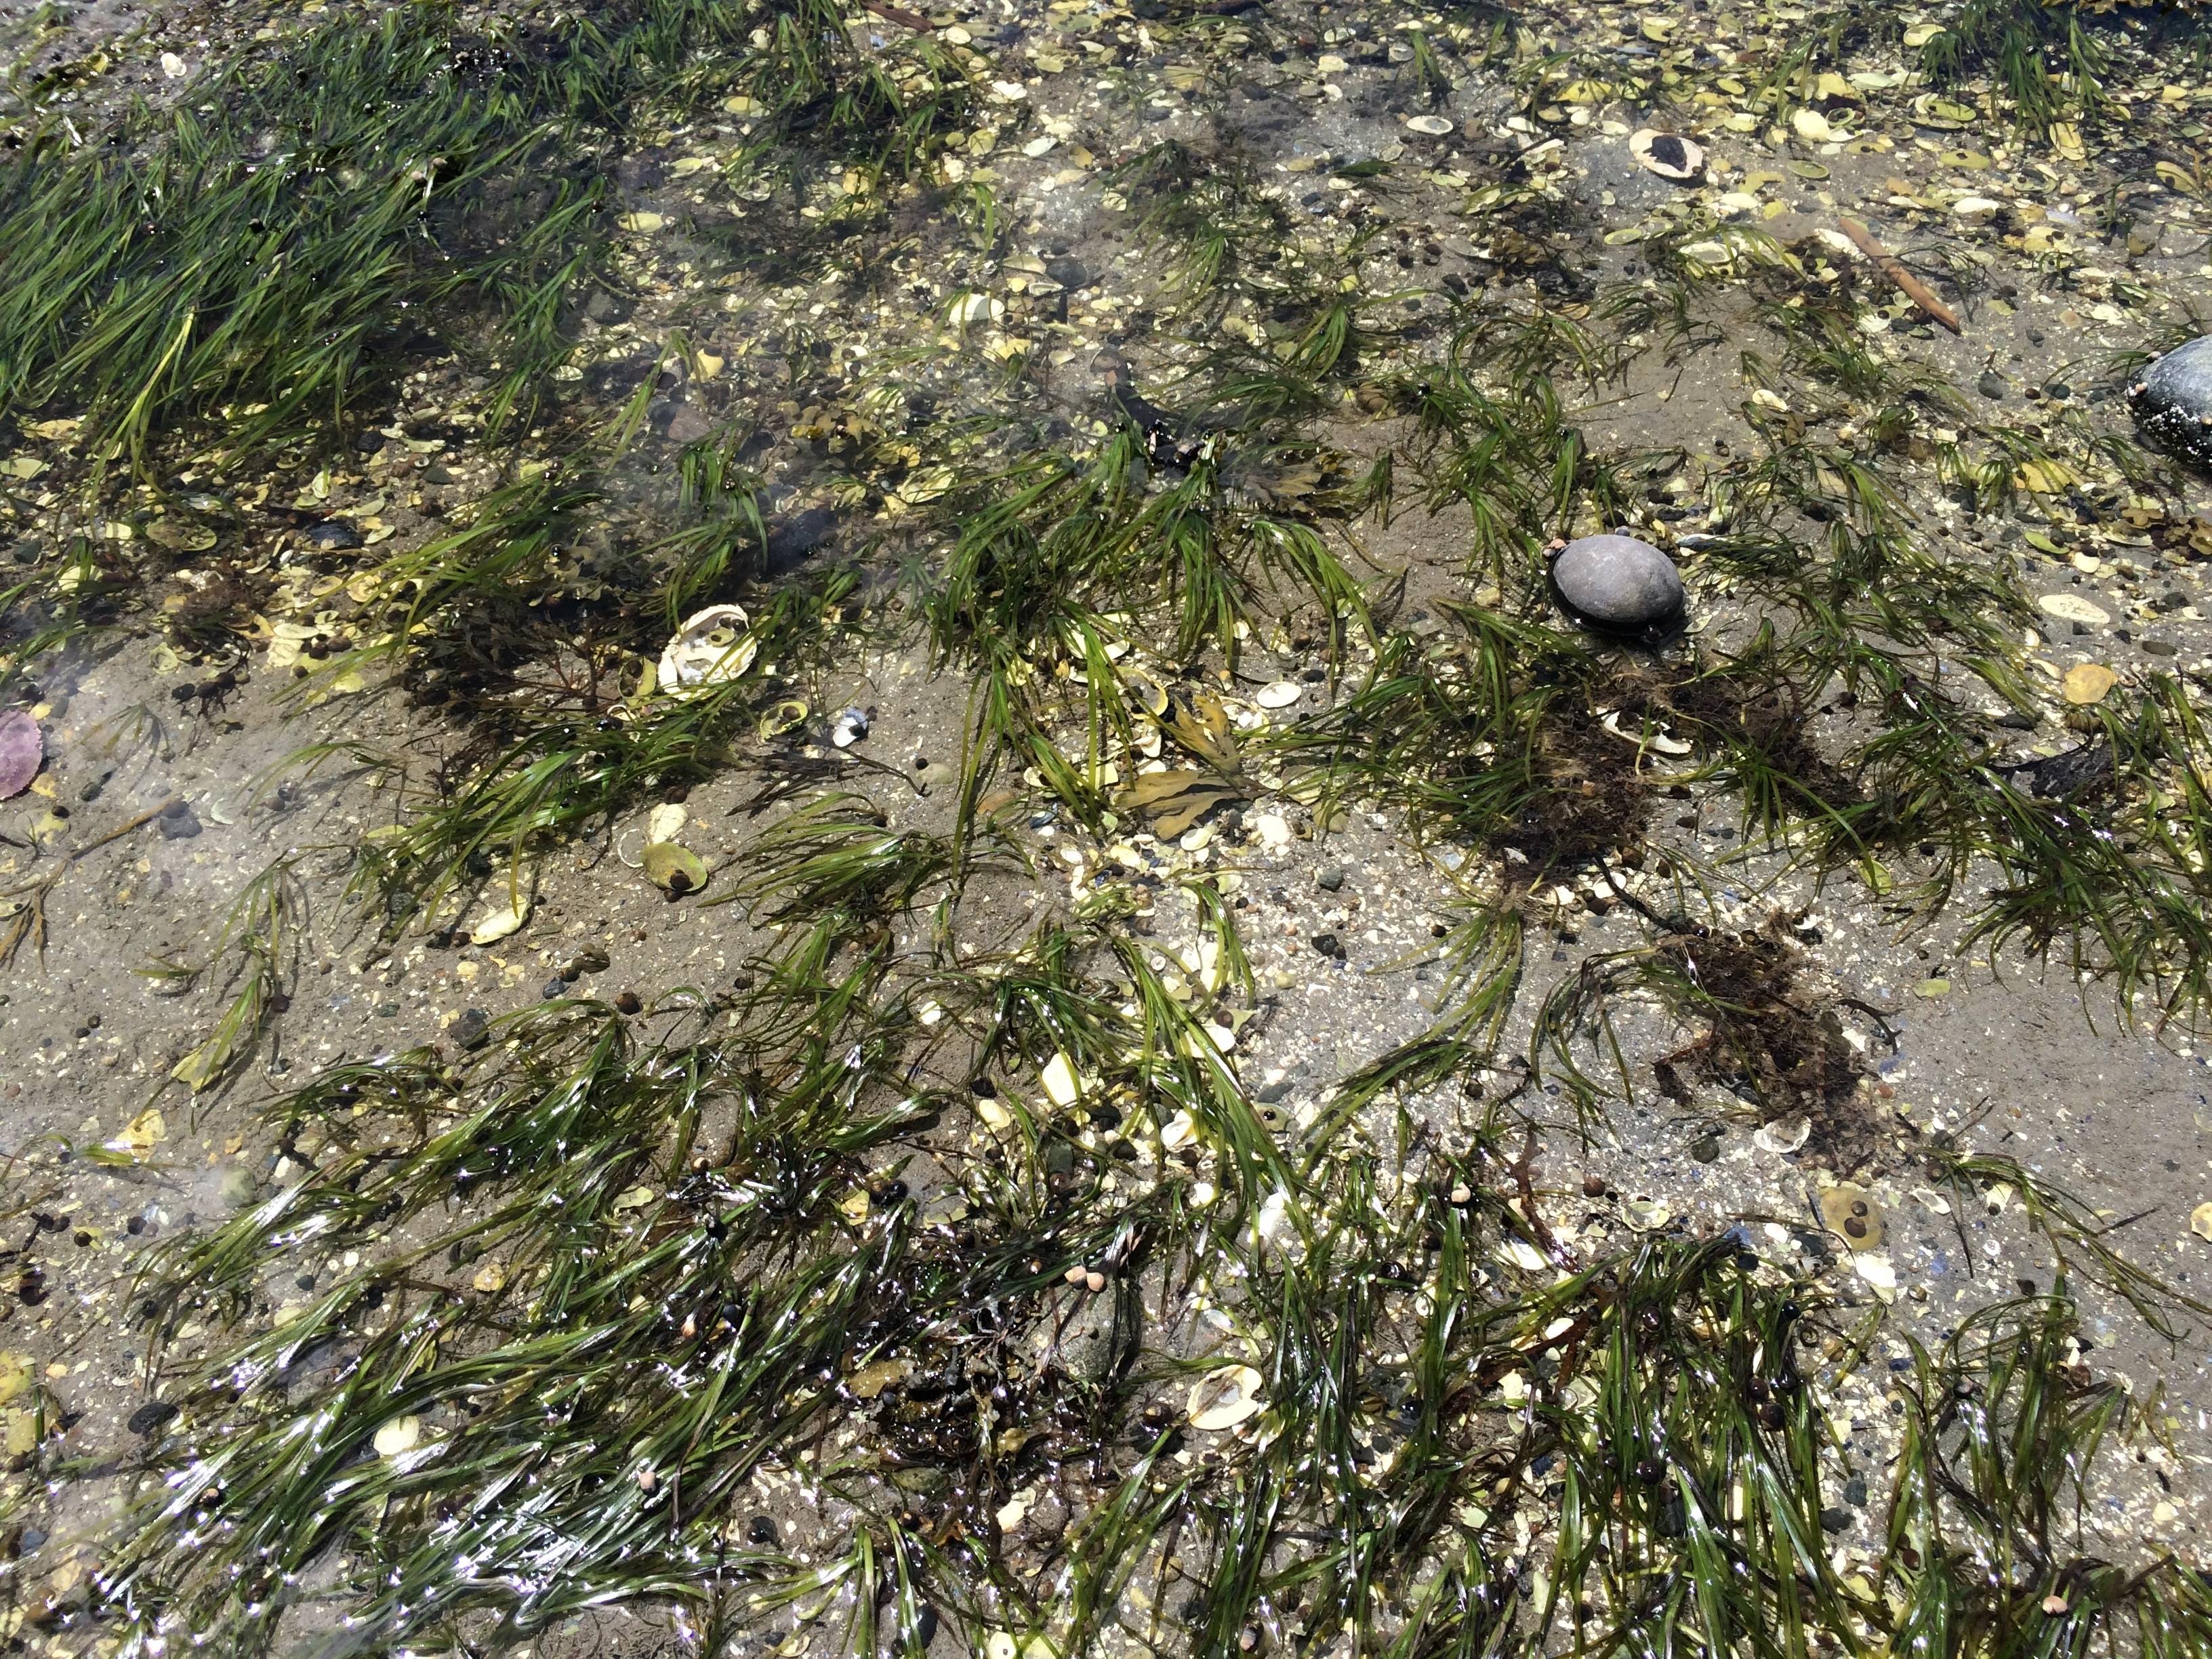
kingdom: Plantae
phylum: Tracheophyta
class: Liliopsida
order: Alismatales
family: Zosteraceae
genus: Zostera
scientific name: Zostera marina
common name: Eelgrass
